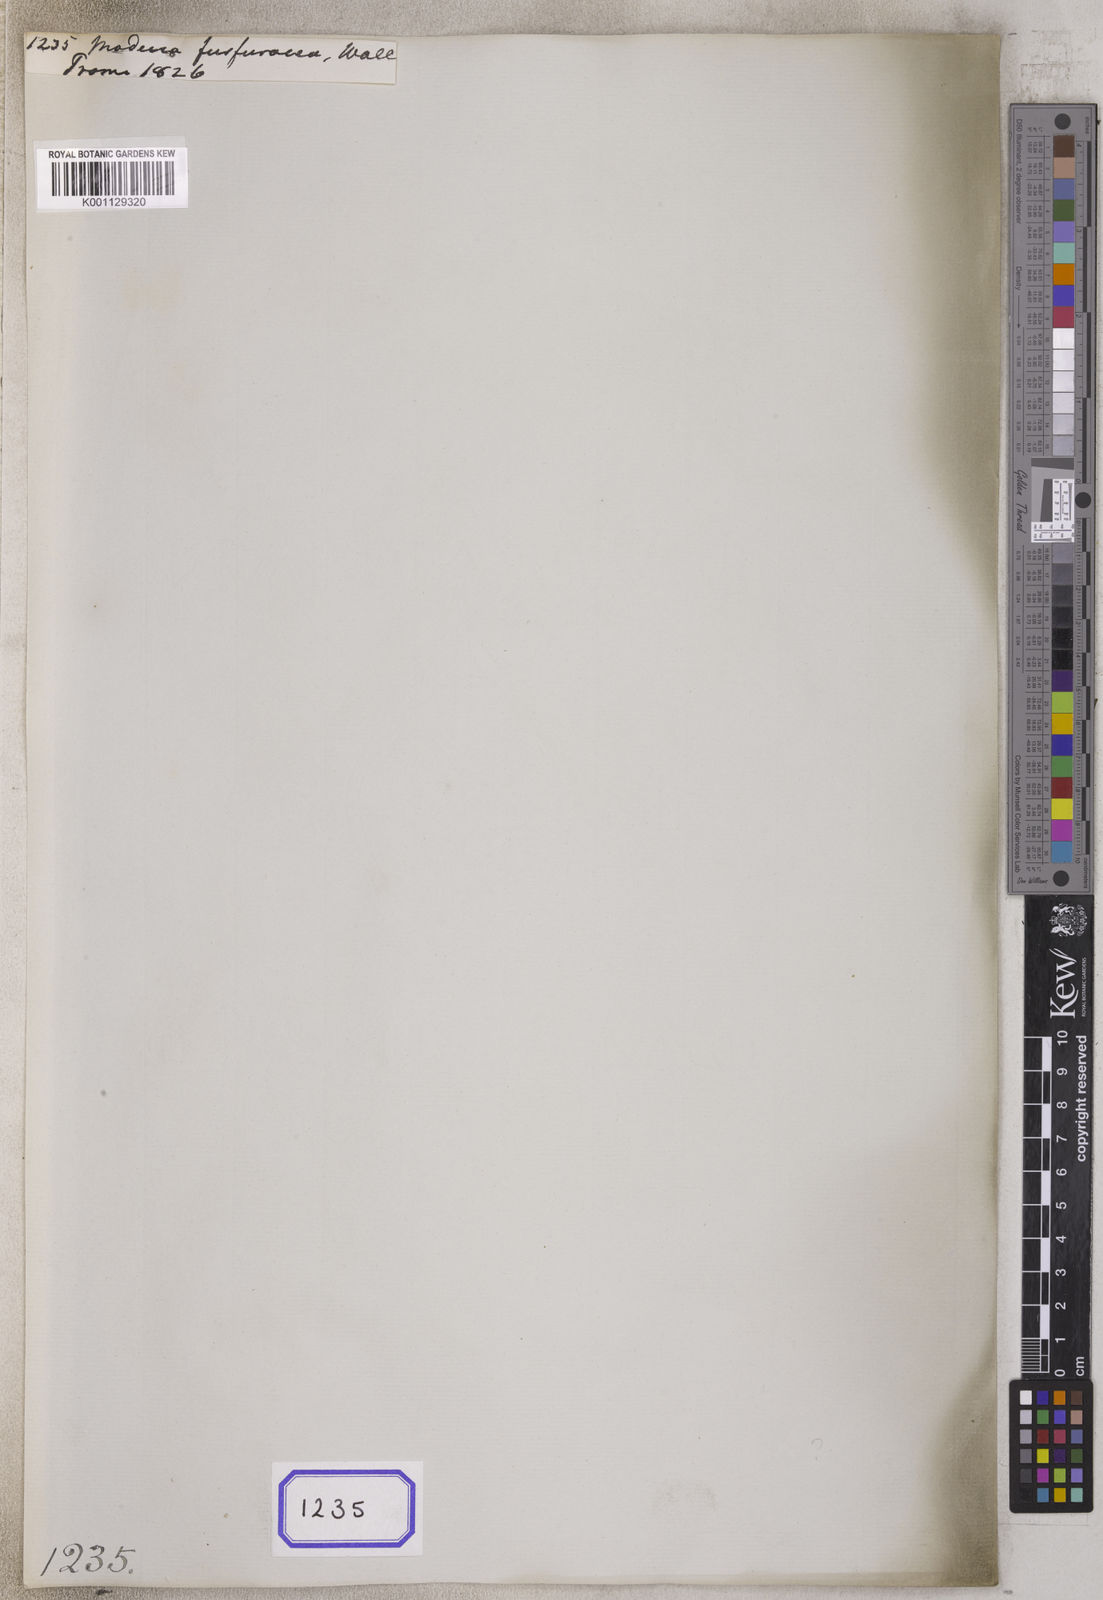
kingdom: Plantae
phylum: Tracheophyta
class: Magnoliopsida
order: Malpighiales
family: Passifloraceae
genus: Adenia
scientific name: Adenia Modecca furfuracea
